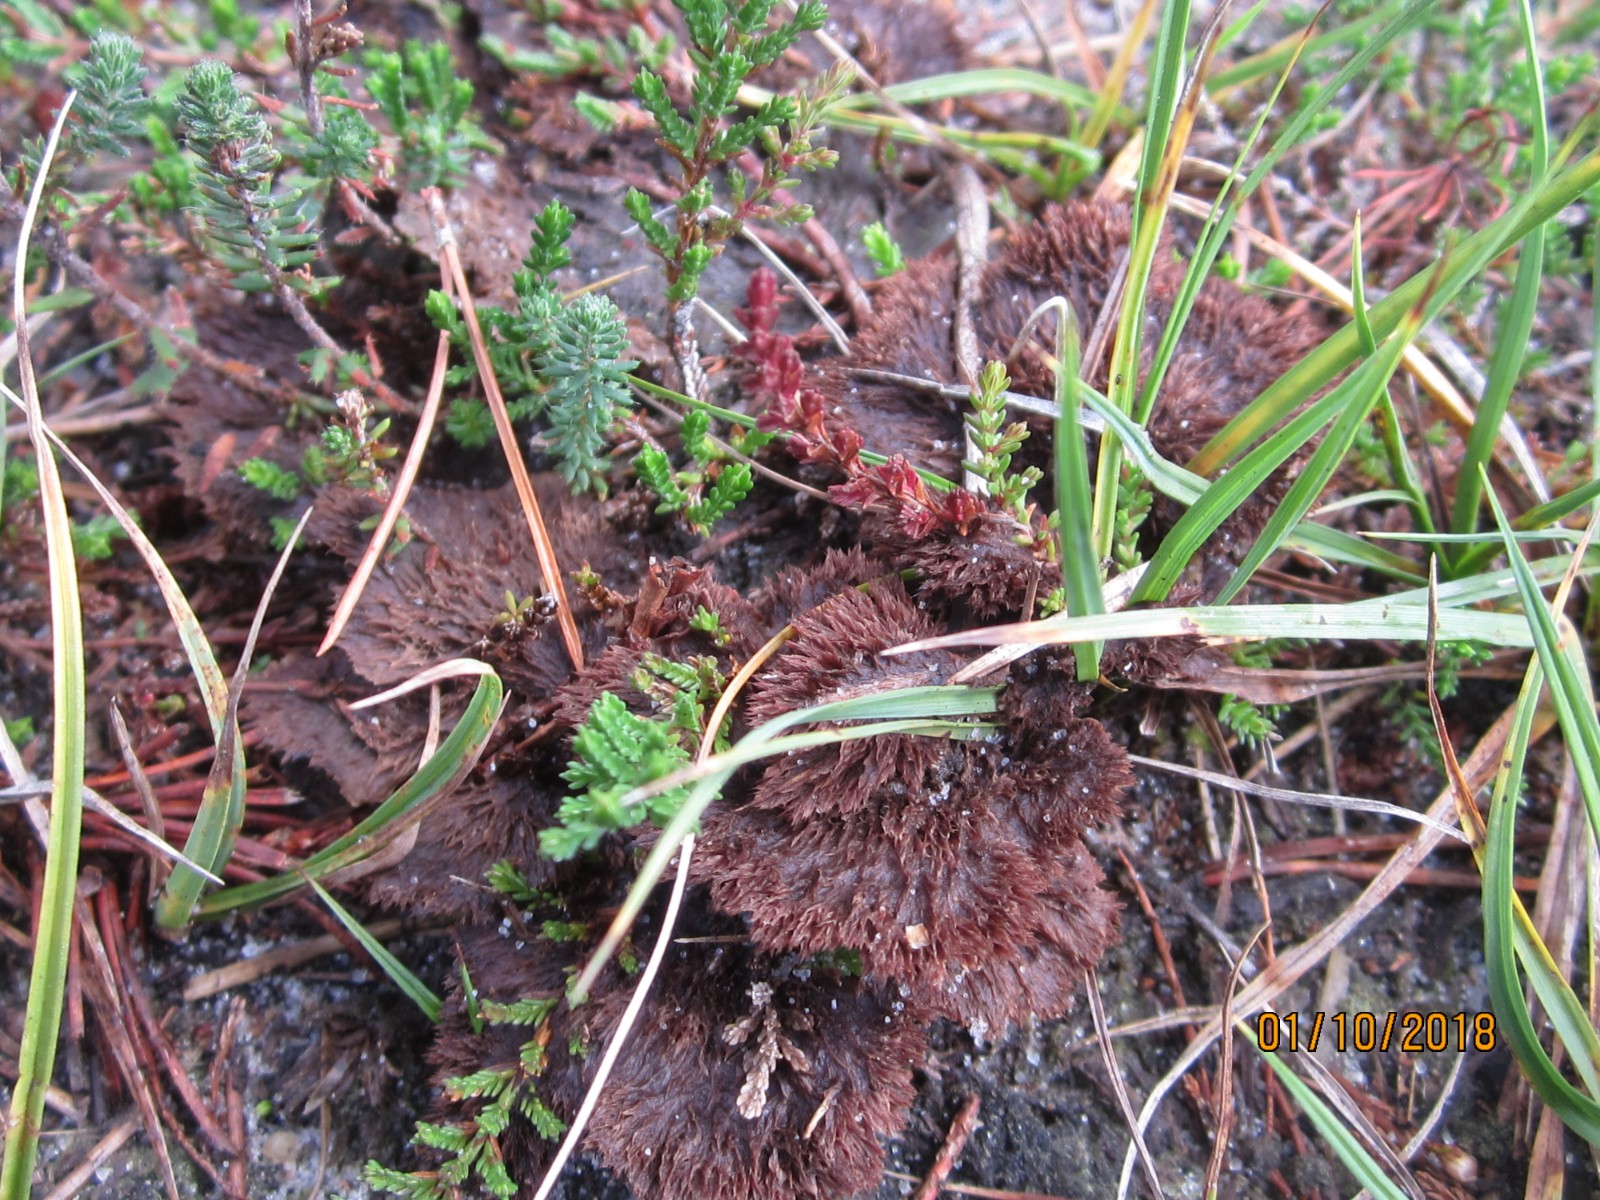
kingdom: Fungi
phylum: Basidiomycota
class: Agaricomycetes
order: Thelephorales
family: Thelephoraceae
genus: Thelephora
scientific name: Thelephora terrestris
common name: fliget frynsesvamp
